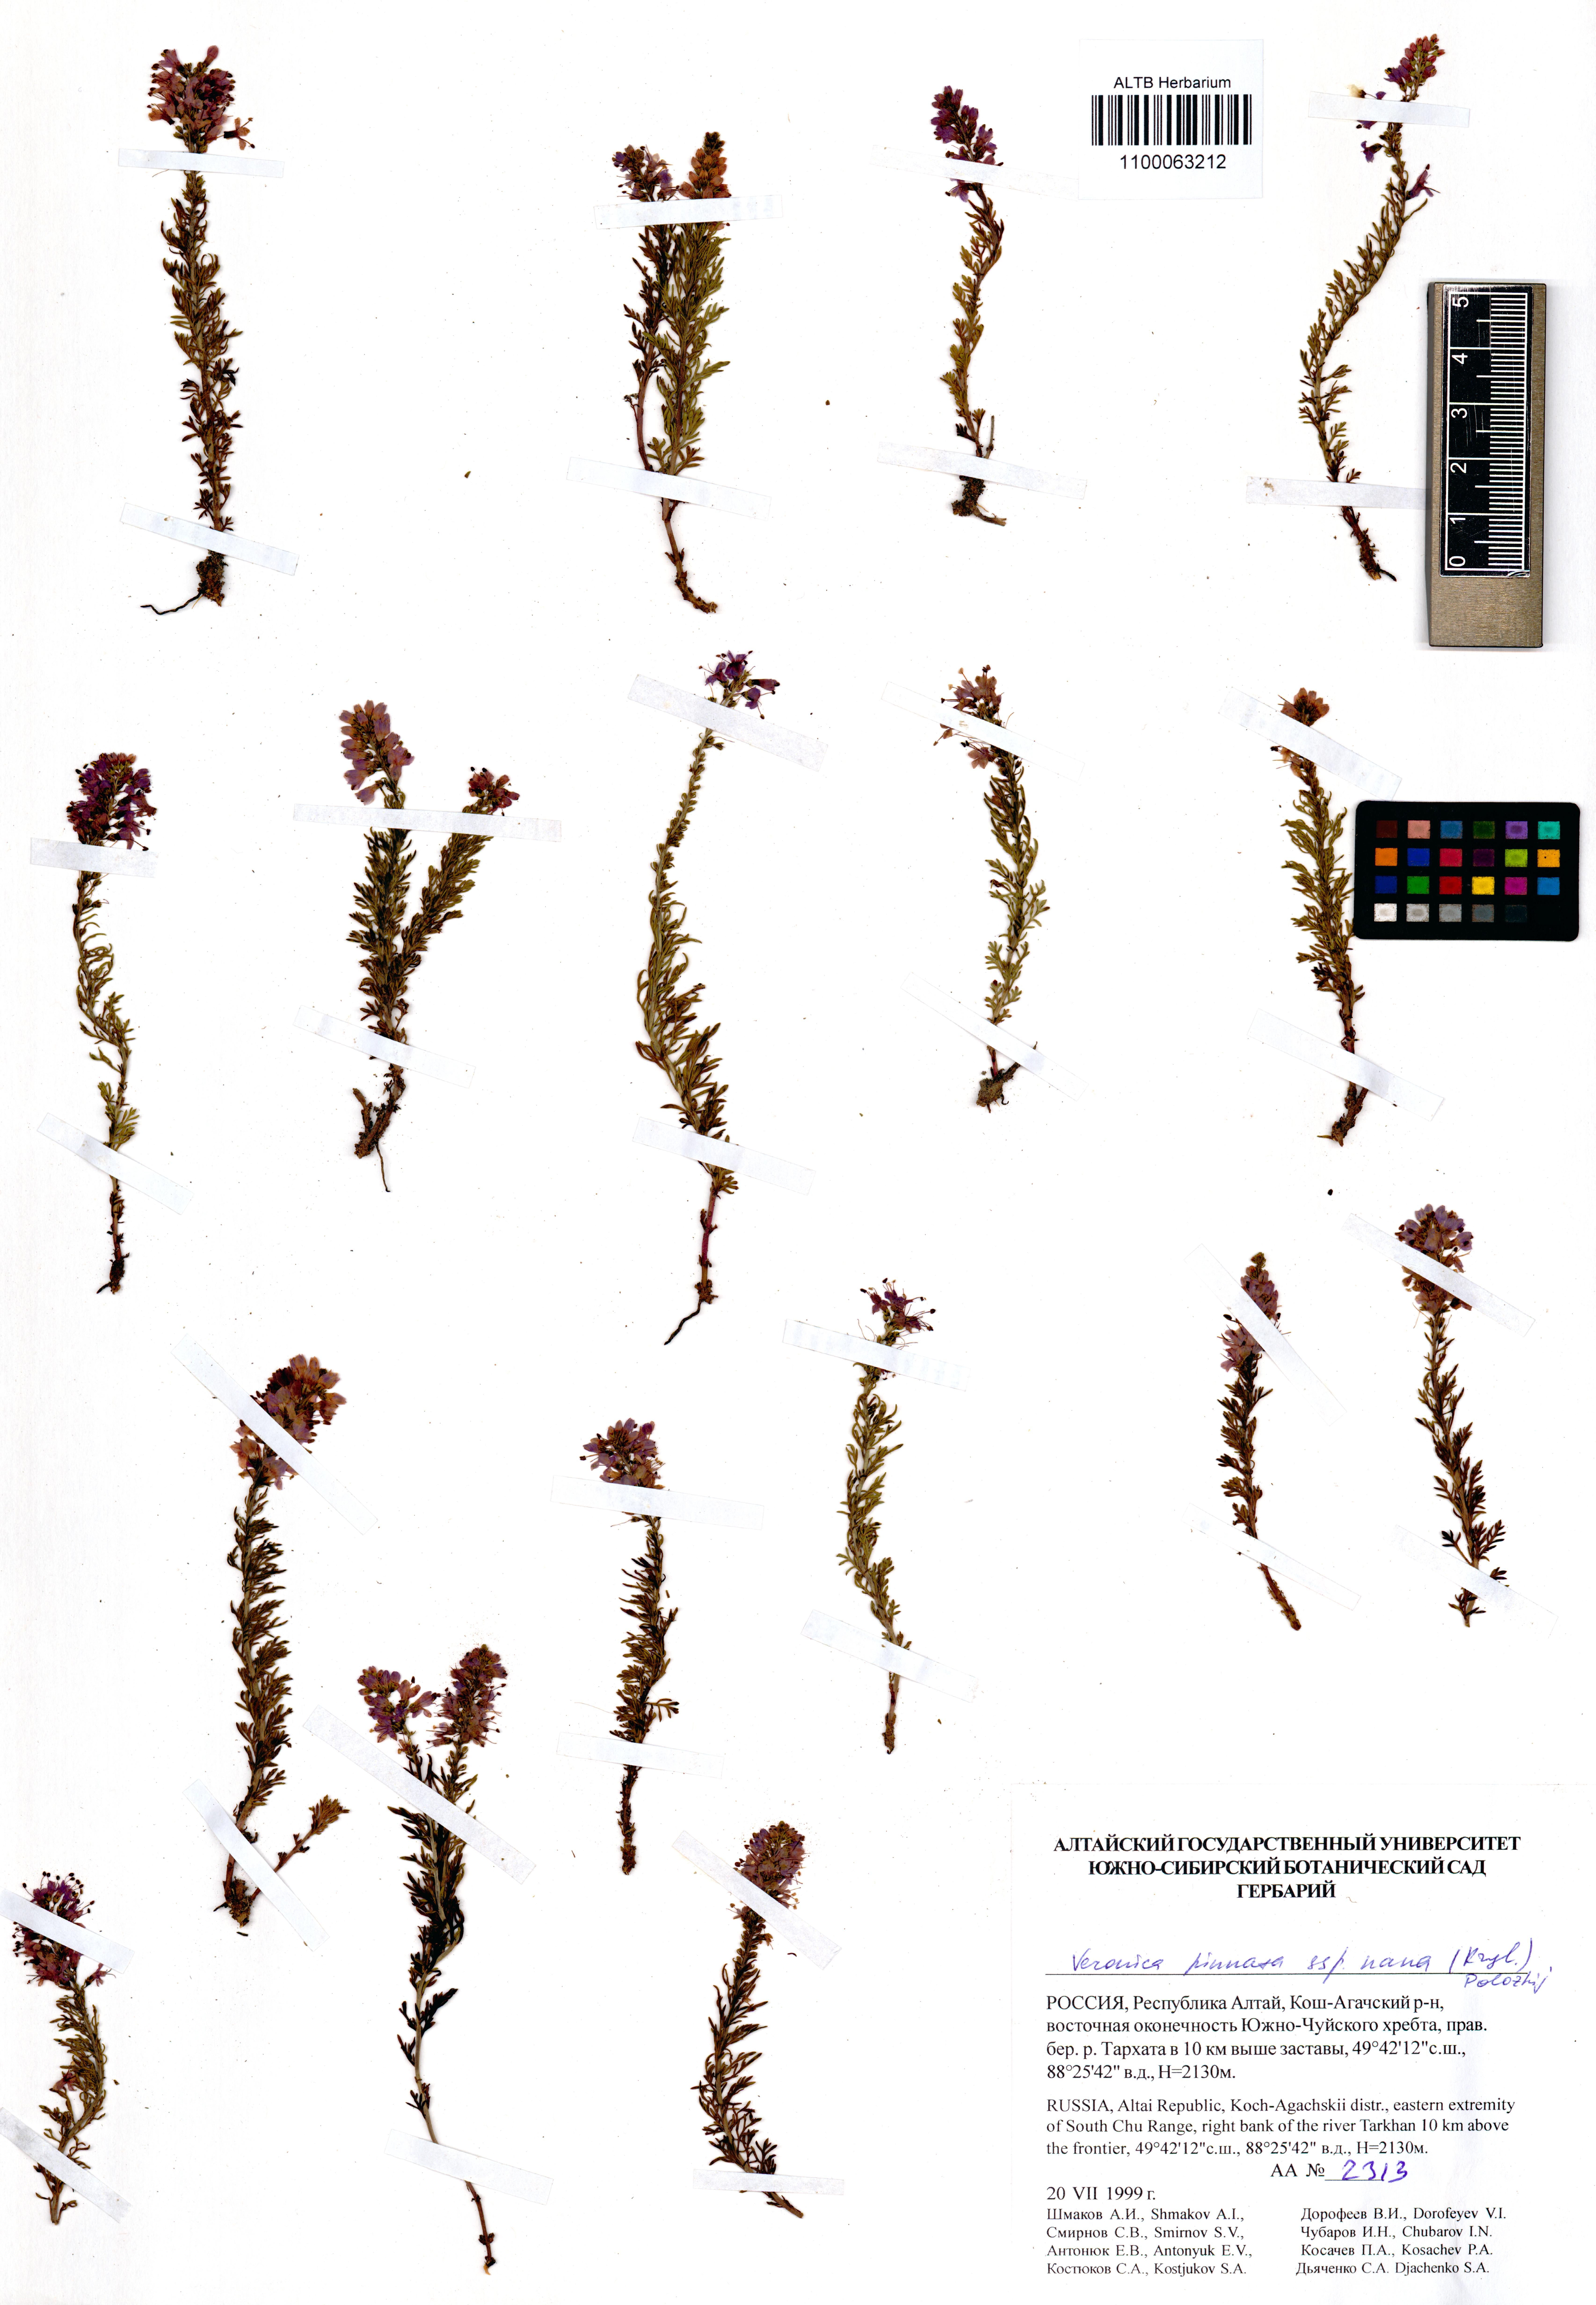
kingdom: Plantae
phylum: Tracheophyta
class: Magnoliopsida
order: Lamiales
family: Plantaginaceae
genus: Veronica
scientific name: Veronica pinnata
